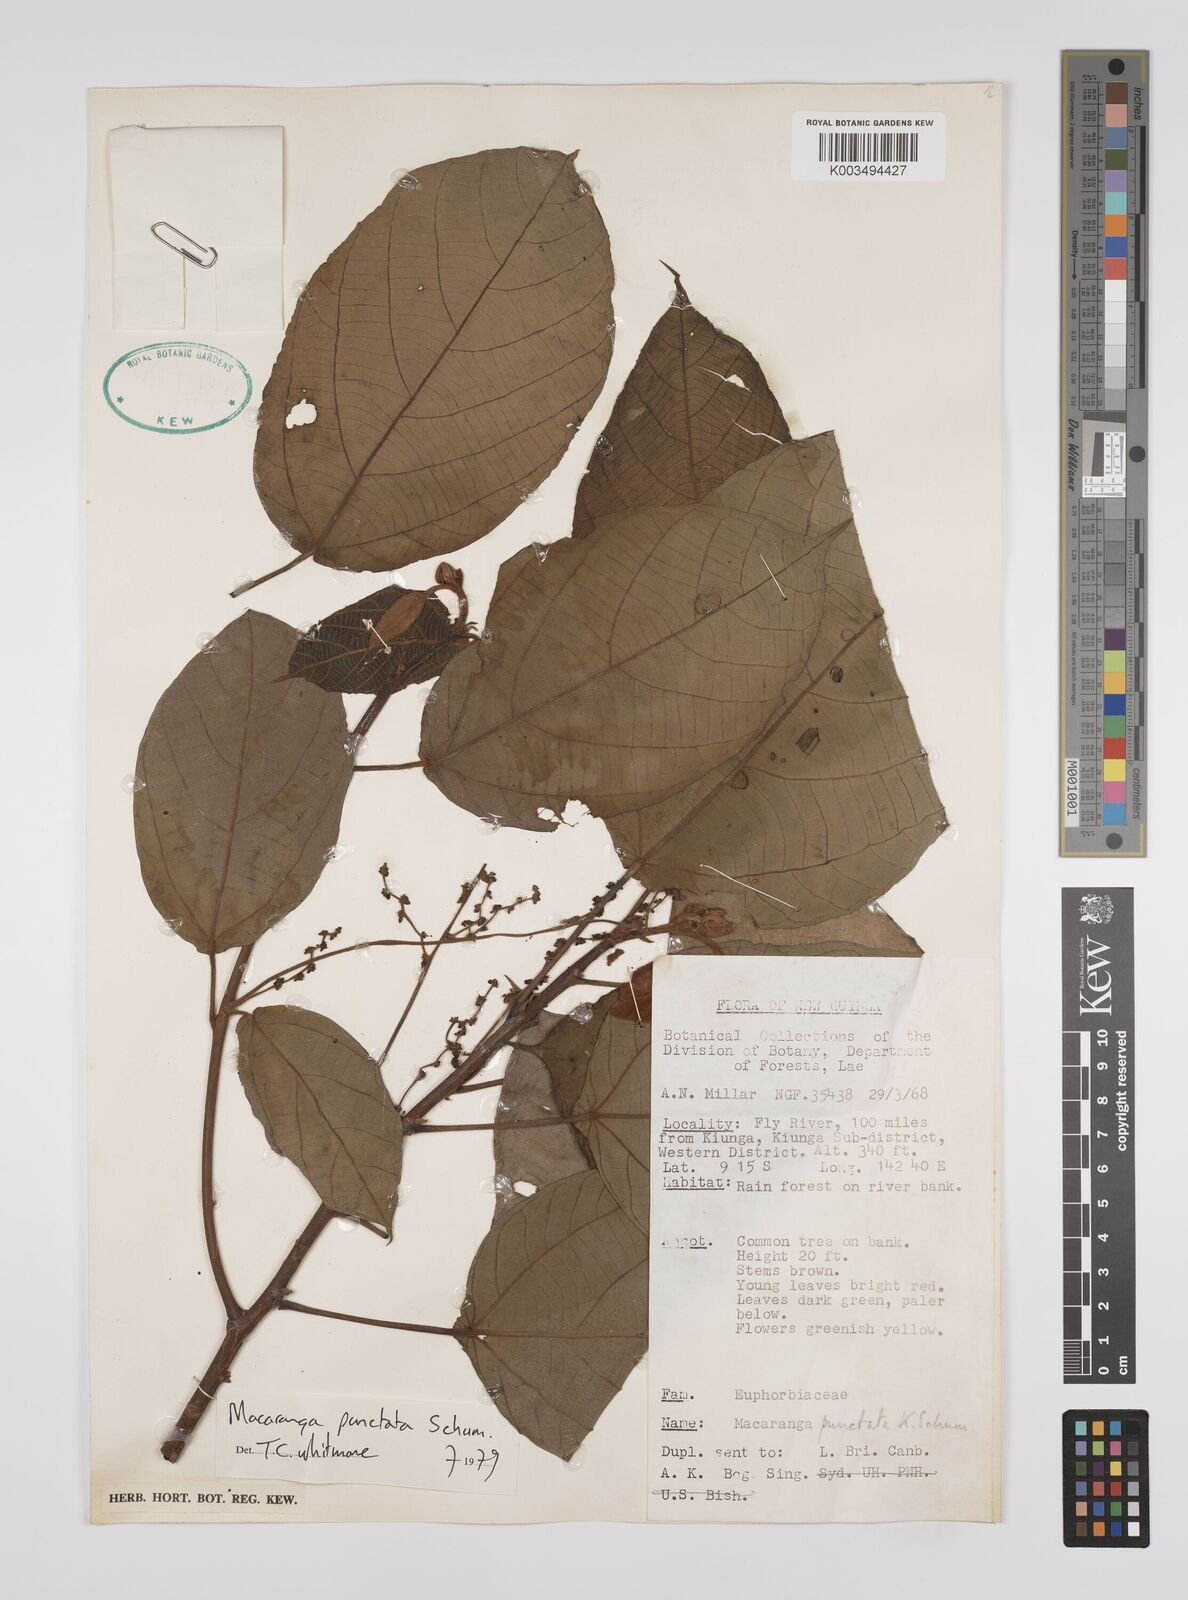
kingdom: Plantae
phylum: Tracheophyta
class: Magnoliopsida
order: Malpighiales
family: Euphorbiaceae
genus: Macaranga
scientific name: Macaranga punctata
